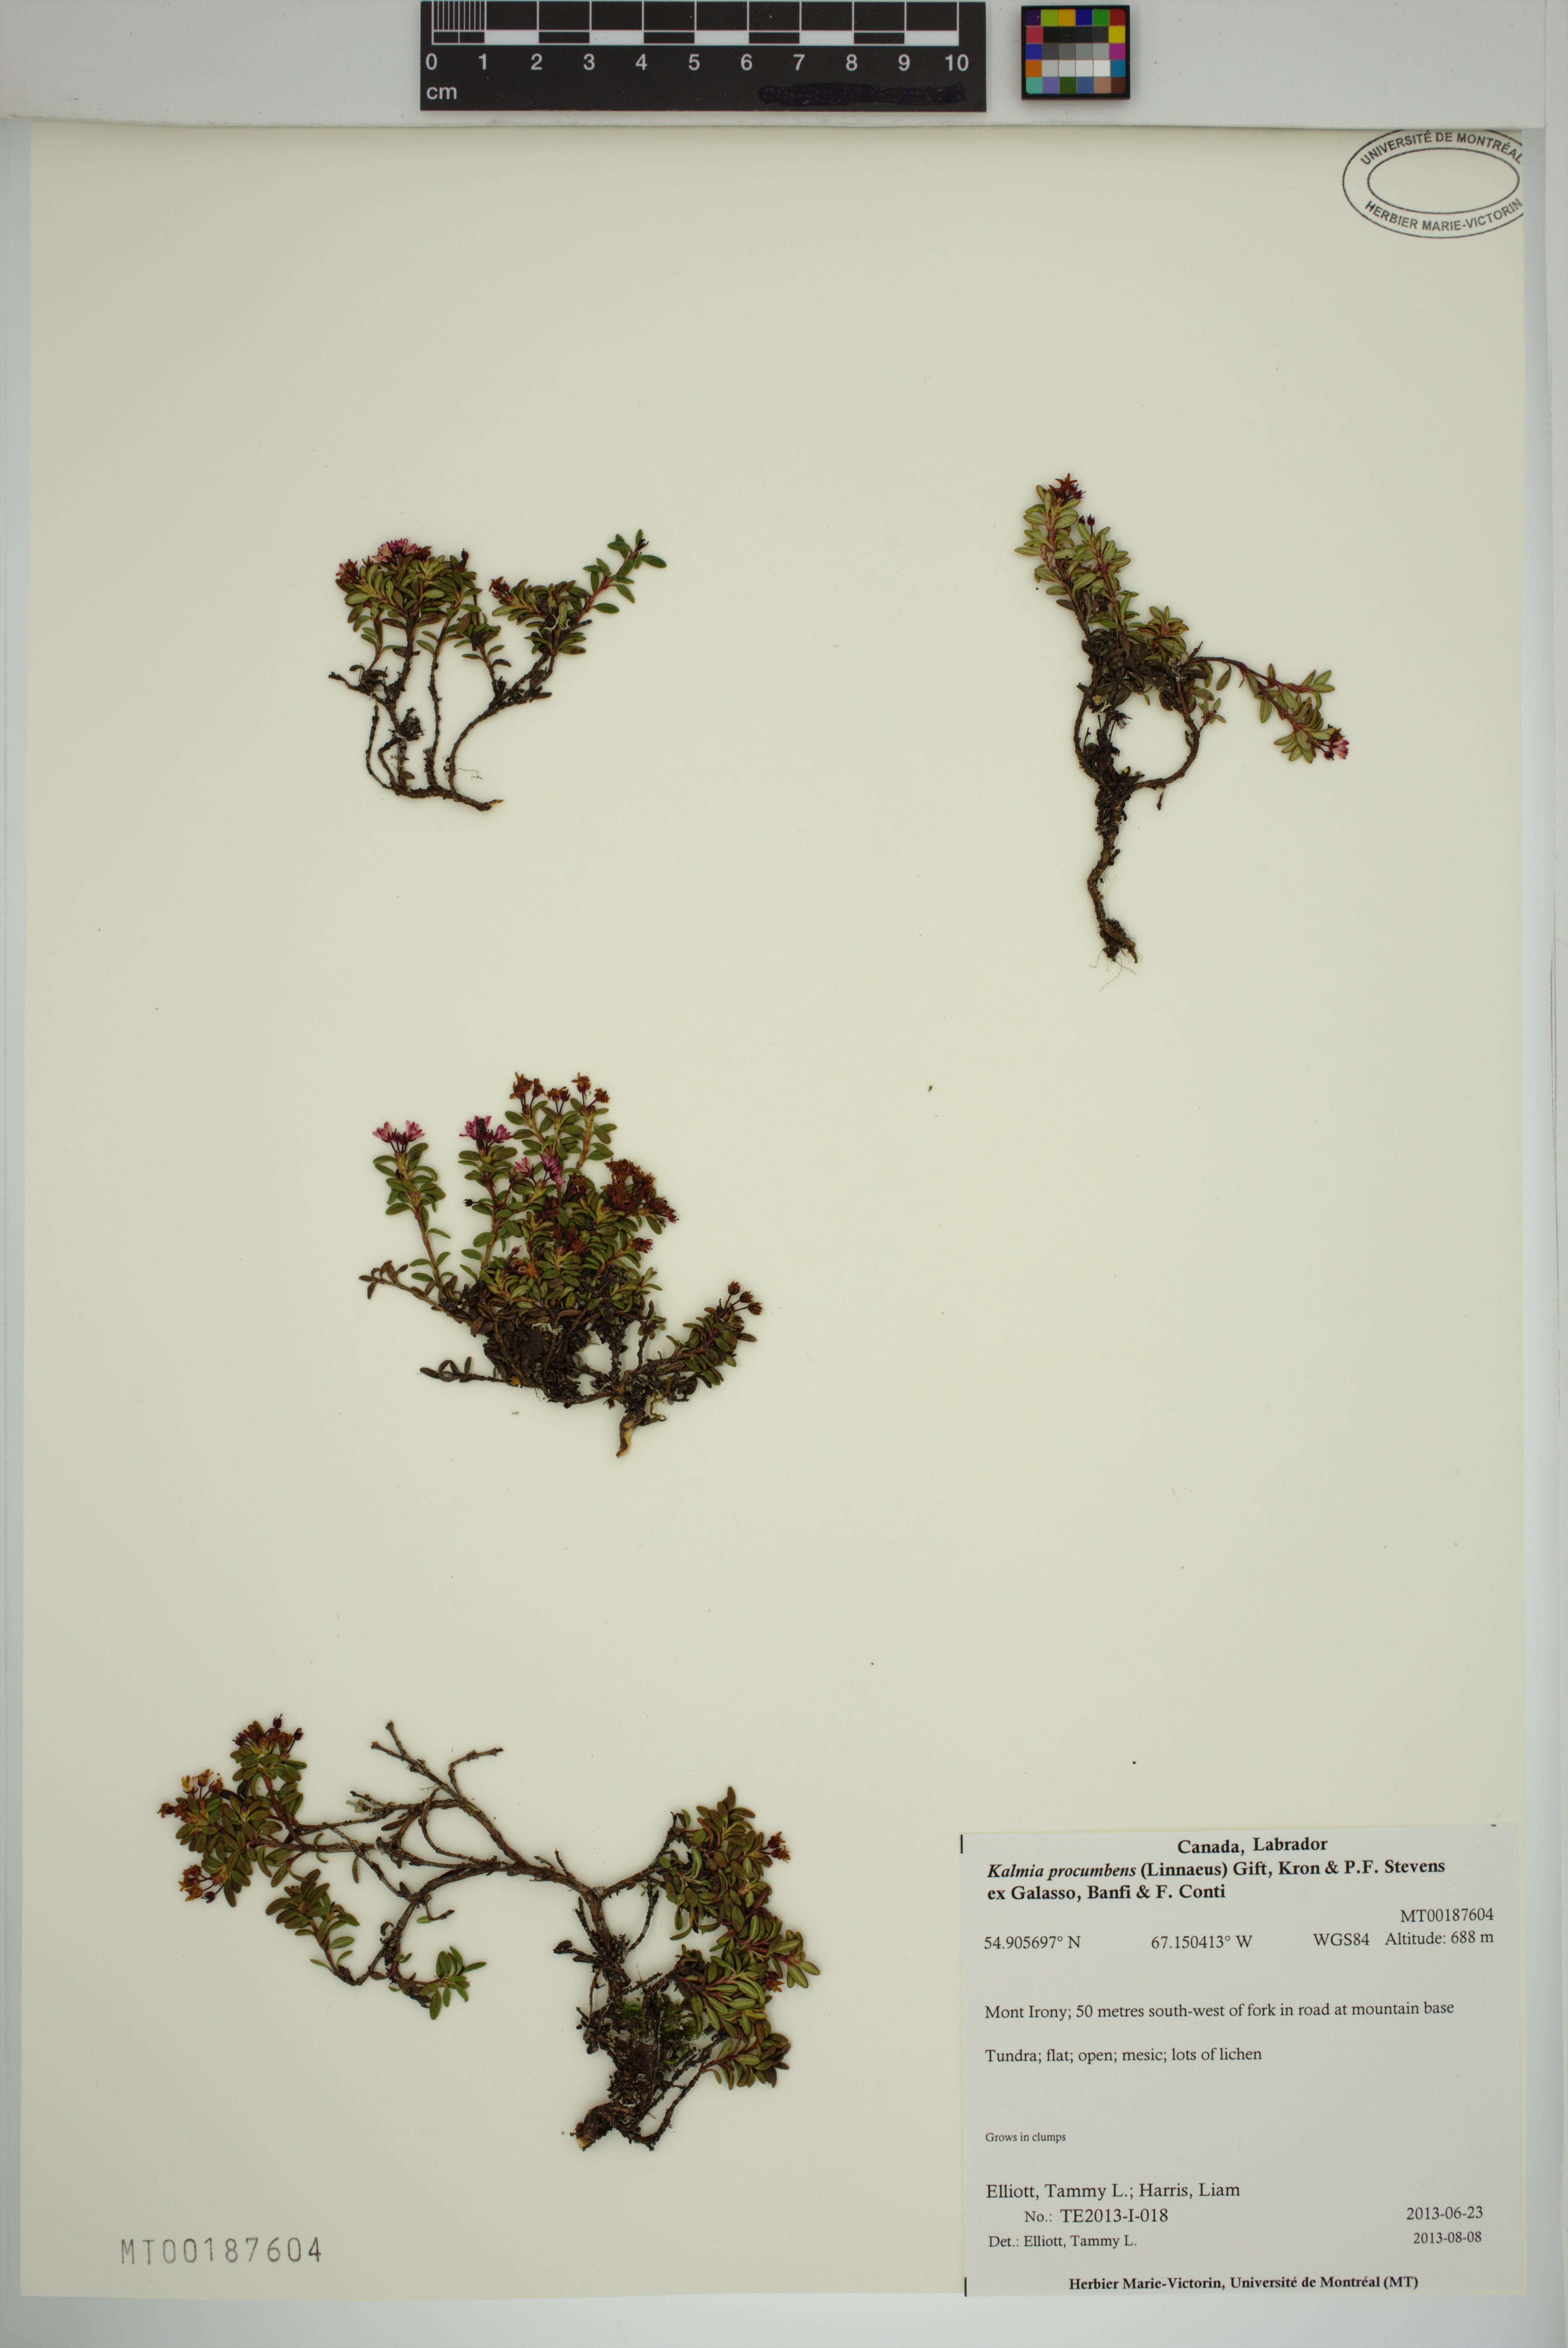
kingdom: Plantae
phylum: Tracheophyta
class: Magnoliopsida
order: Ericales
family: Ericaceae
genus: Kalmia
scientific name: Kalmia procumbens
